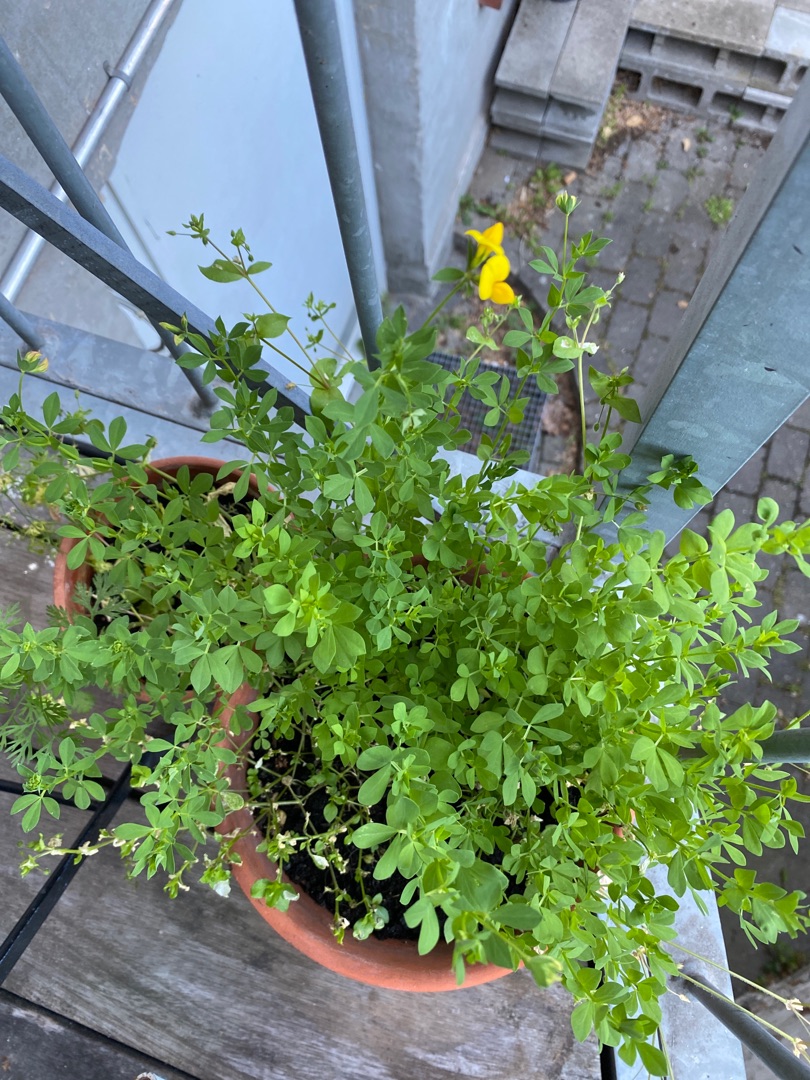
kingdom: Plantae
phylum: Tracheophyta
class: Magnoliopsida
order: Fabales
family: Fabaceae
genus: Lotus
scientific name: Lotus corniculatus
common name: Almindelig kællingetand
